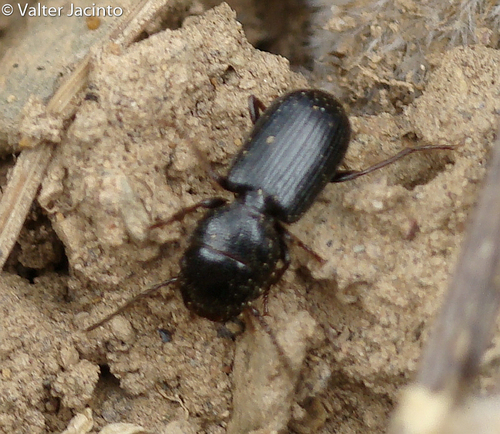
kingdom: Animalia
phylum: Arthropoda
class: Insecta
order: Coleoptera
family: Carabidae
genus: Dixus
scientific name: Dixus clypeatus
